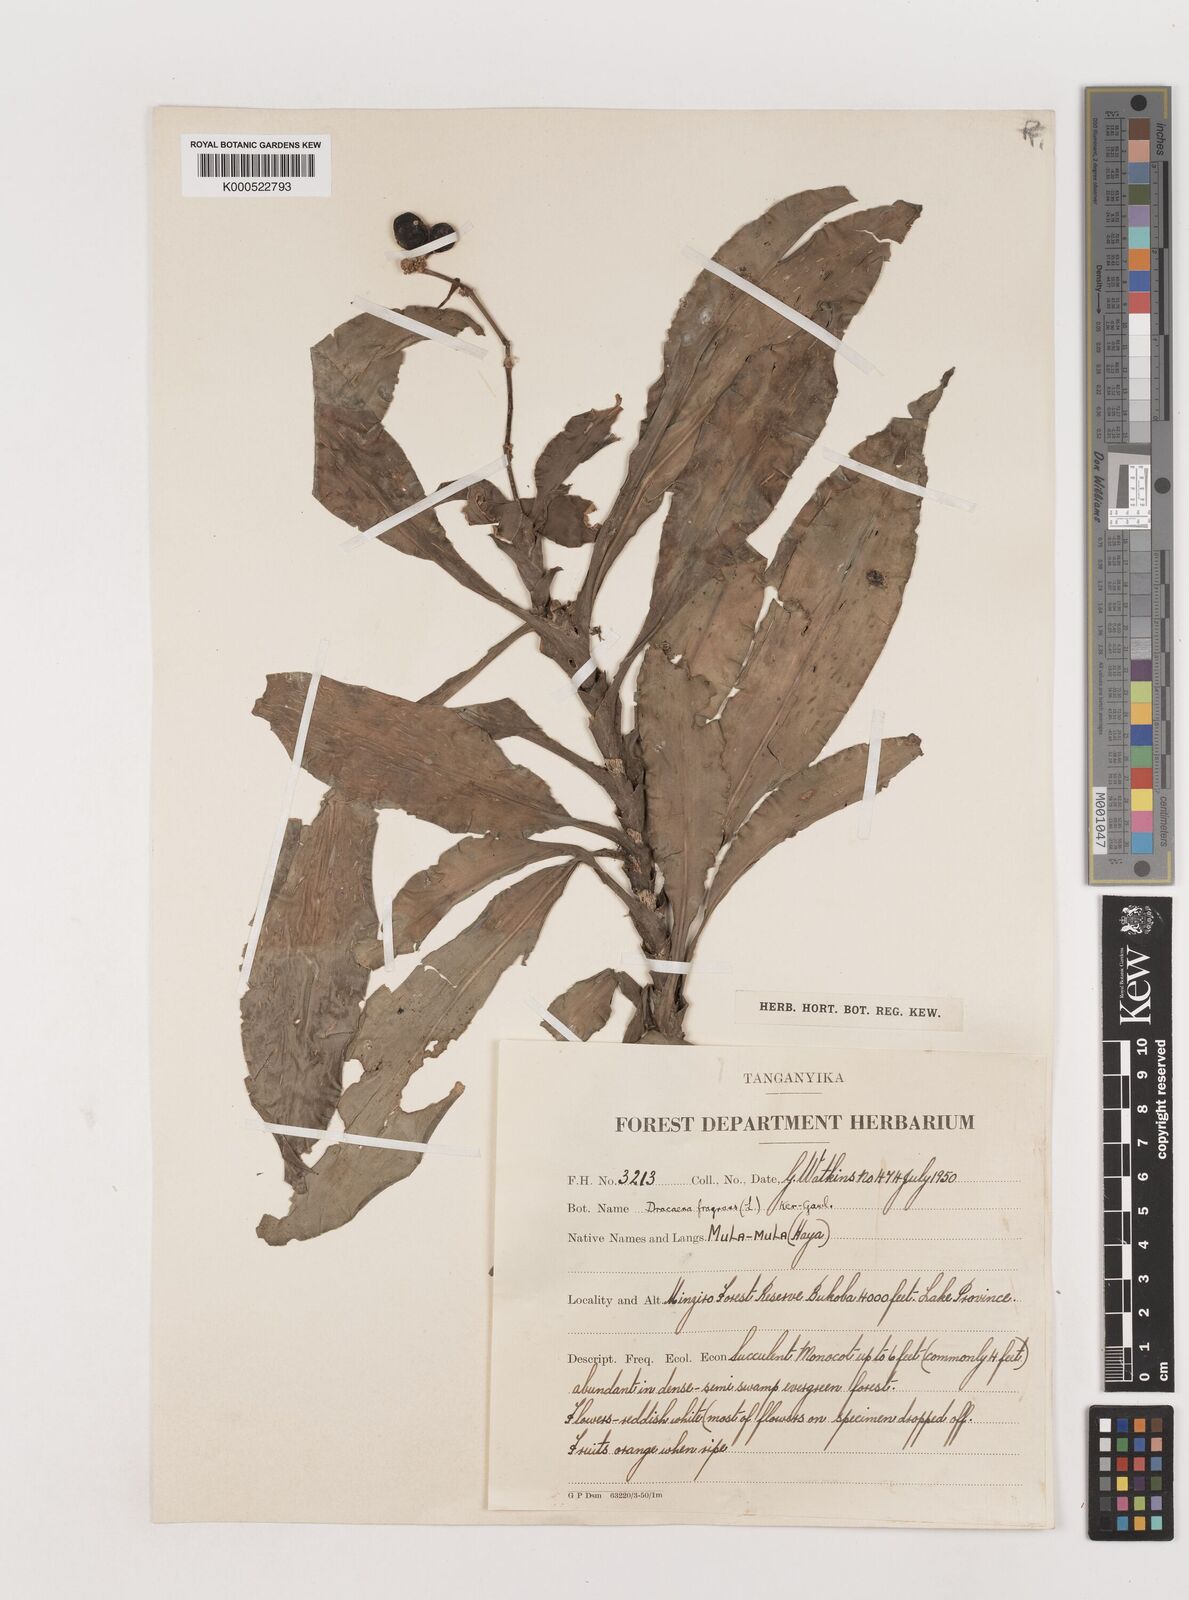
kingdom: Plantae
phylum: Tracheophyta
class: Liliopsida
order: Asparagales
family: Asparagaceae
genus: Dracaena
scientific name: Dracaena fragrans
